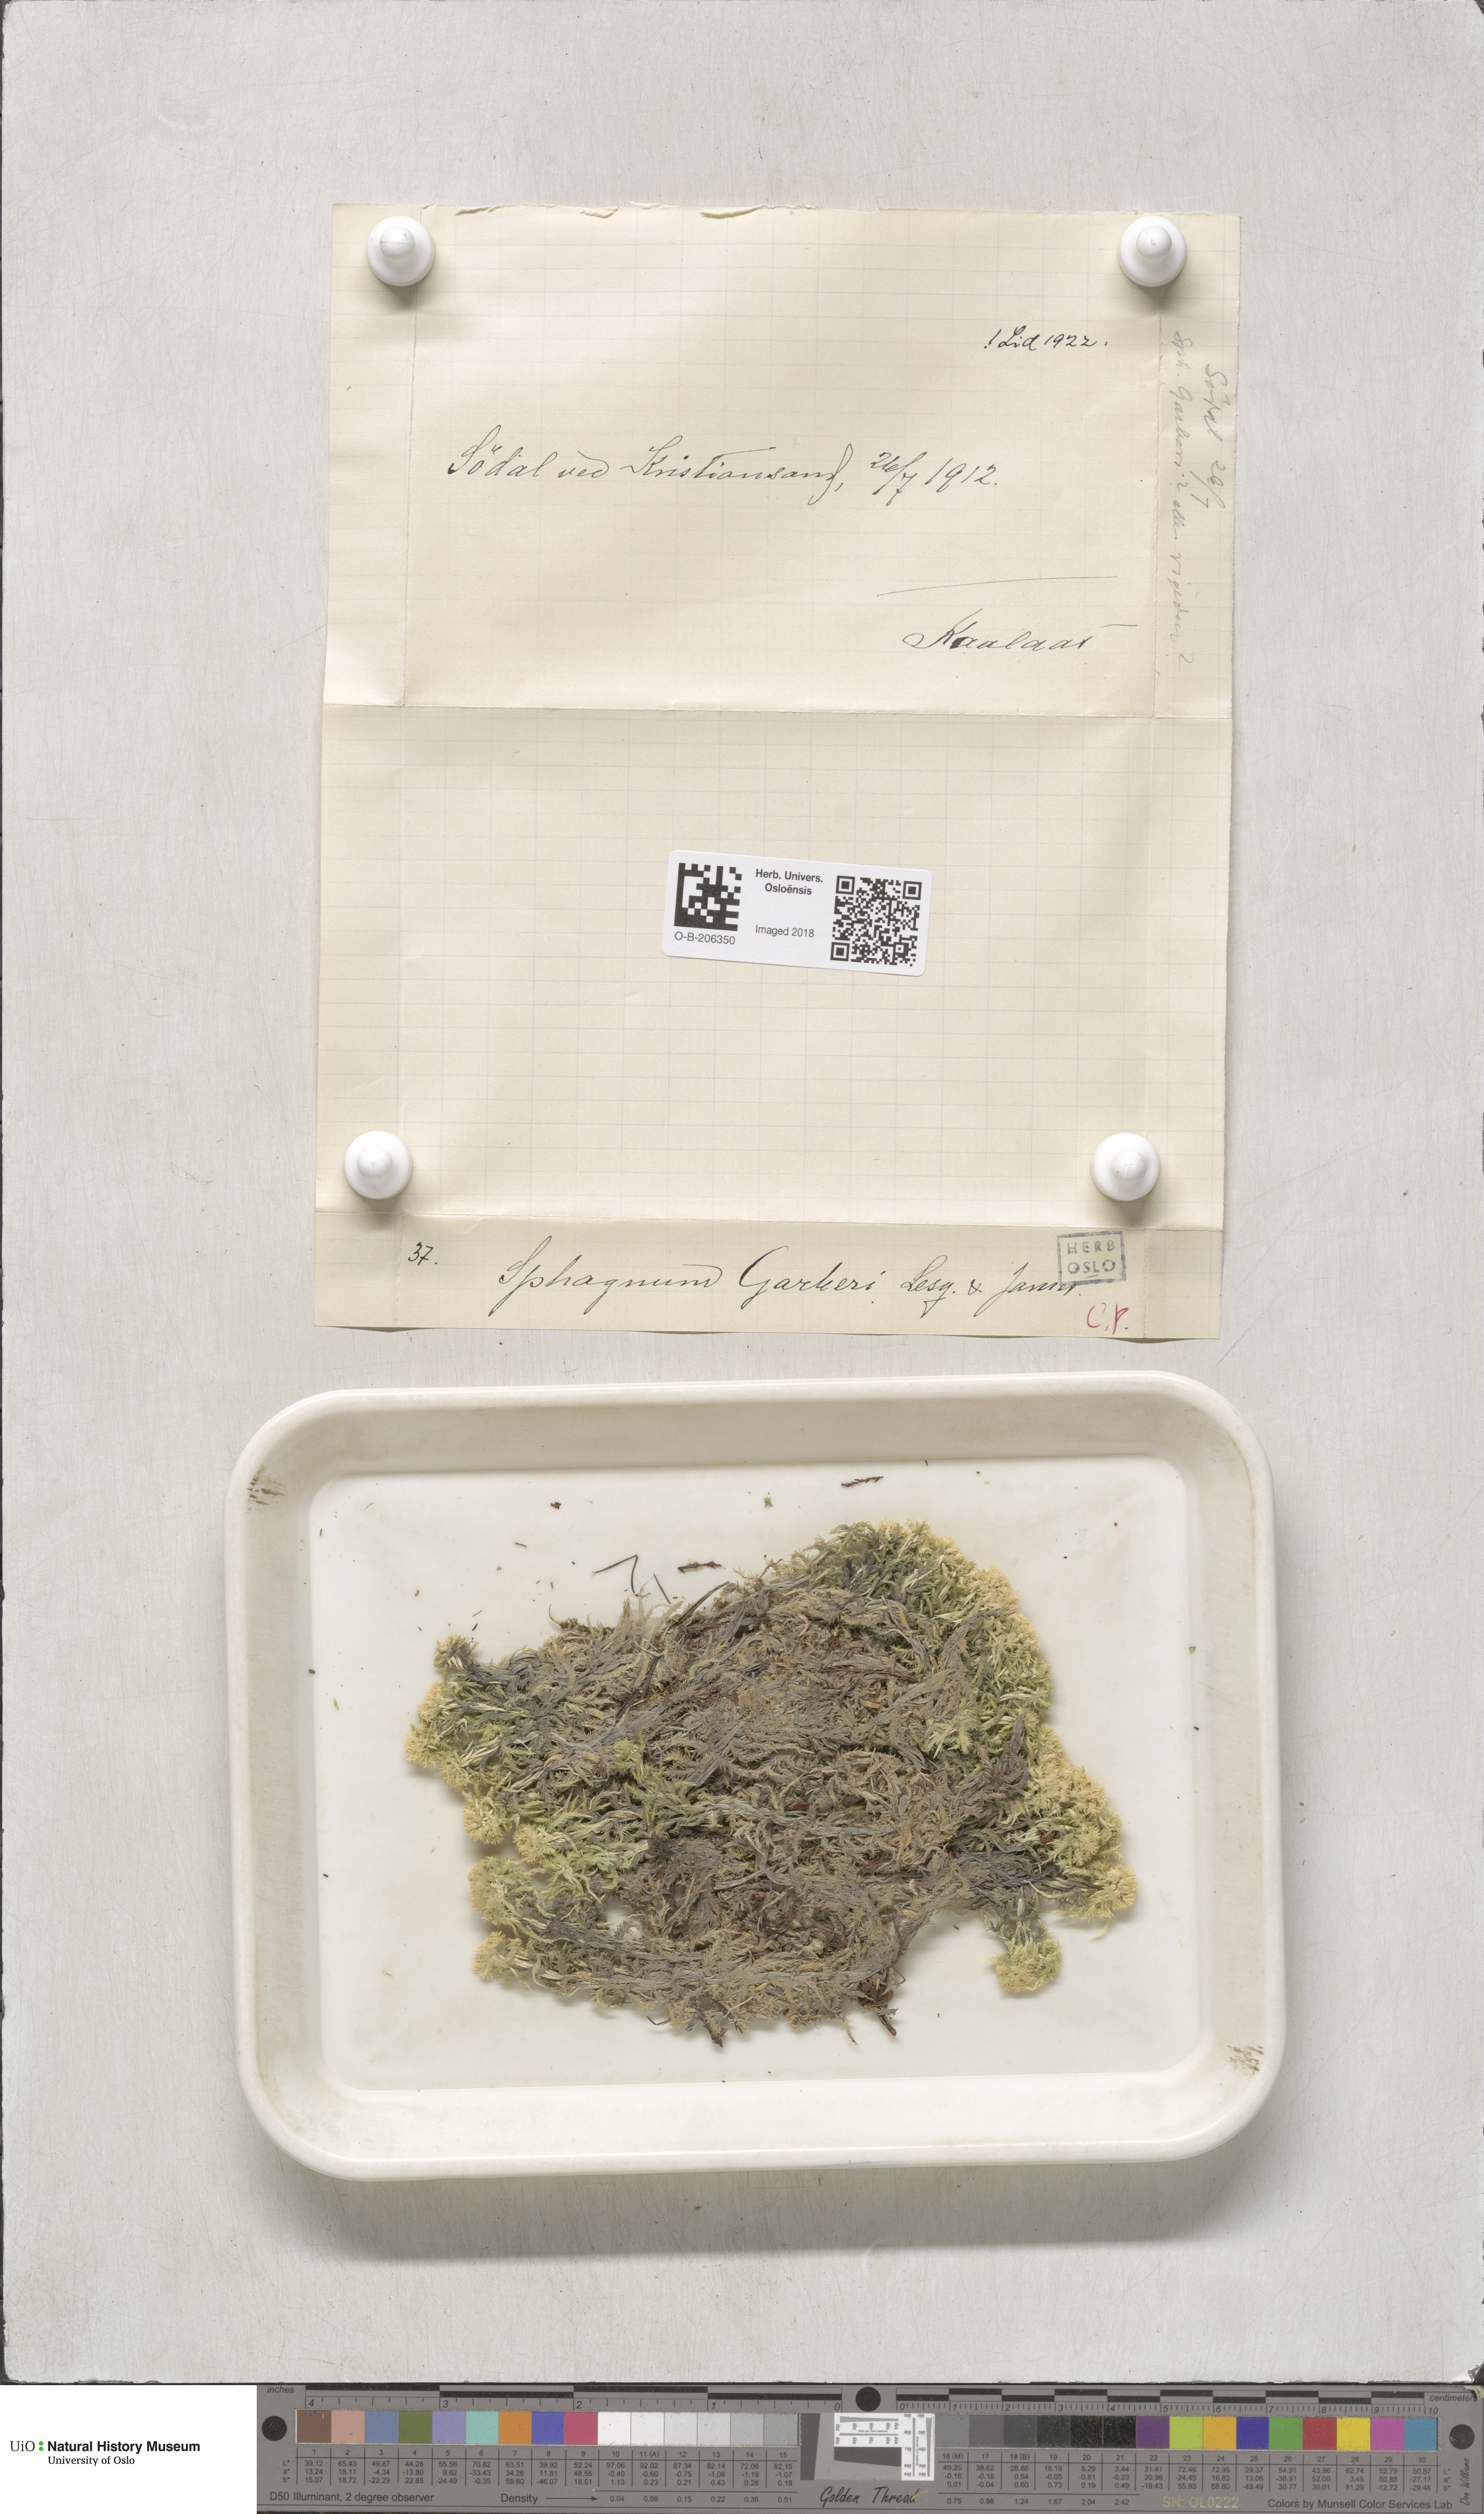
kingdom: Plantae
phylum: Bryophyta
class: Sphagnopsida
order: Sphagnales
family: Sphagnaceae
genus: Sphagnum
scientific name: Sphagnum strictum
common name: Pale bog-moss
